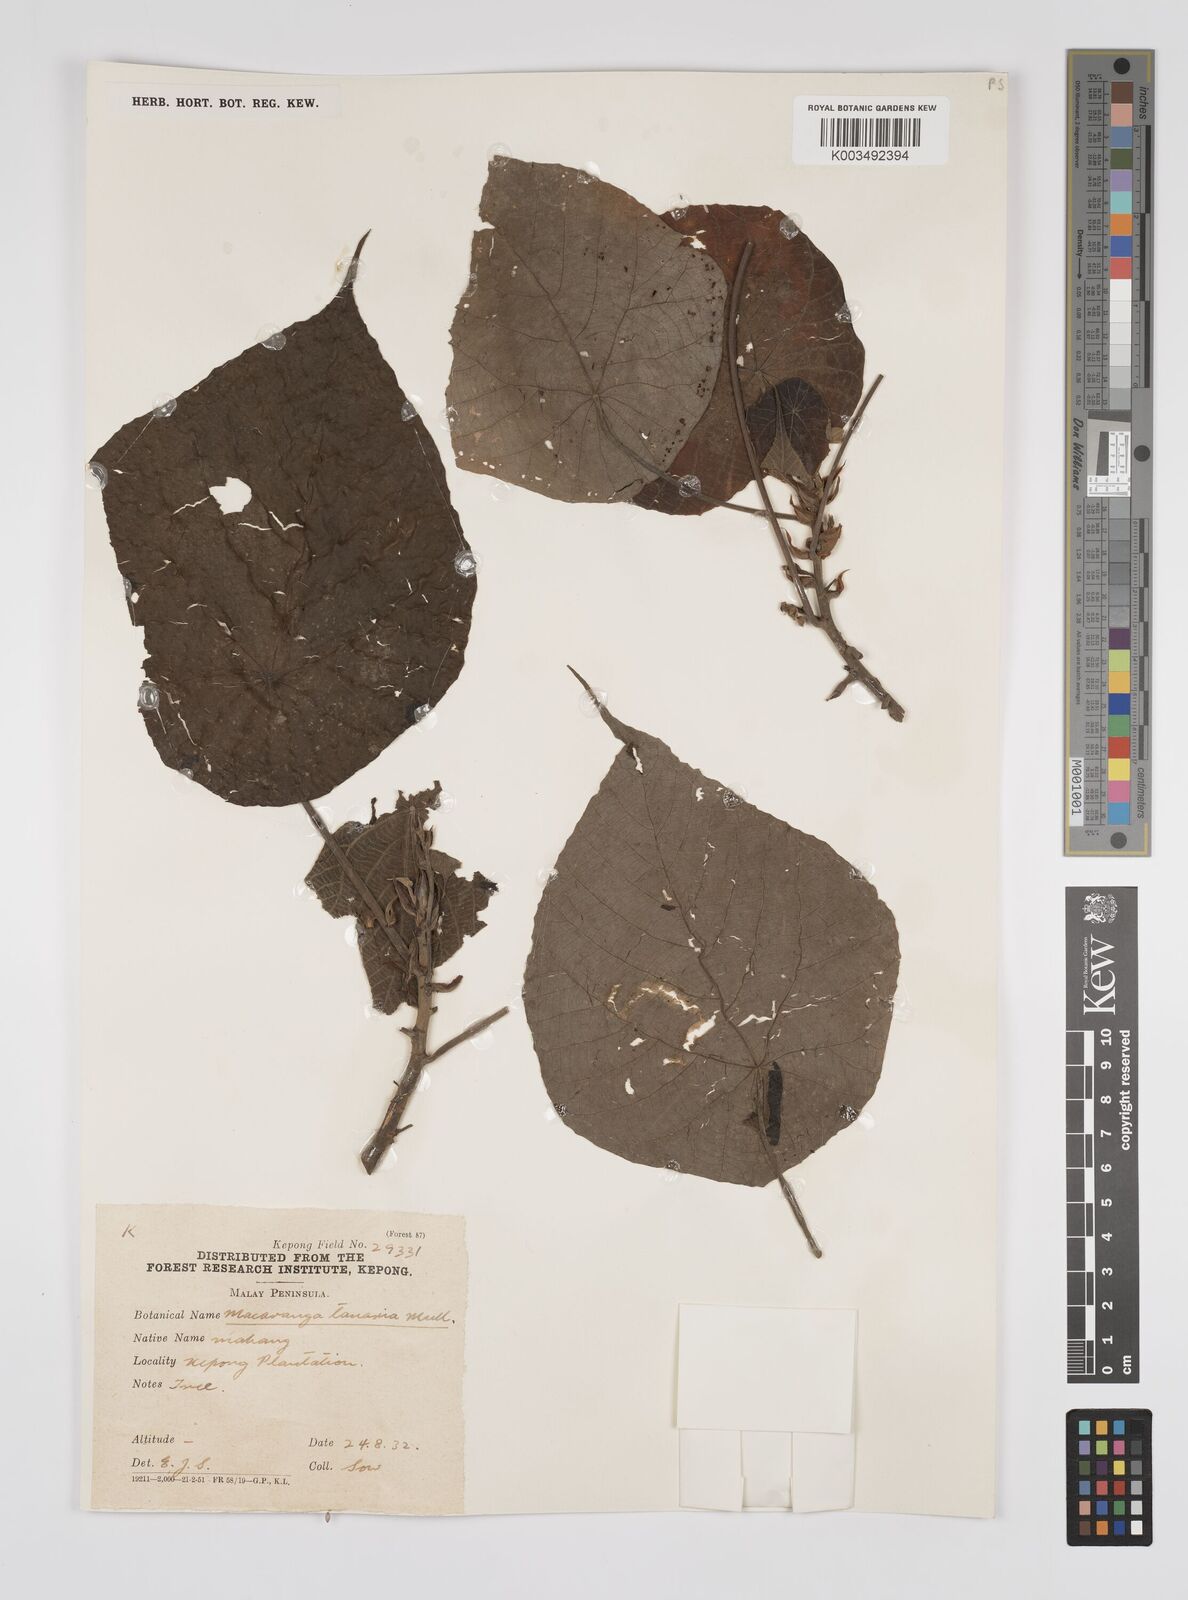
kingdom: Plantae
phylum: Tracheophyta
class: Magnoliopsida
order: Malpighiales
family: Euphorbiaceae
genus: Macaranga
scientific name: Macaranga tanarius
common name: Parasol leaf tree
